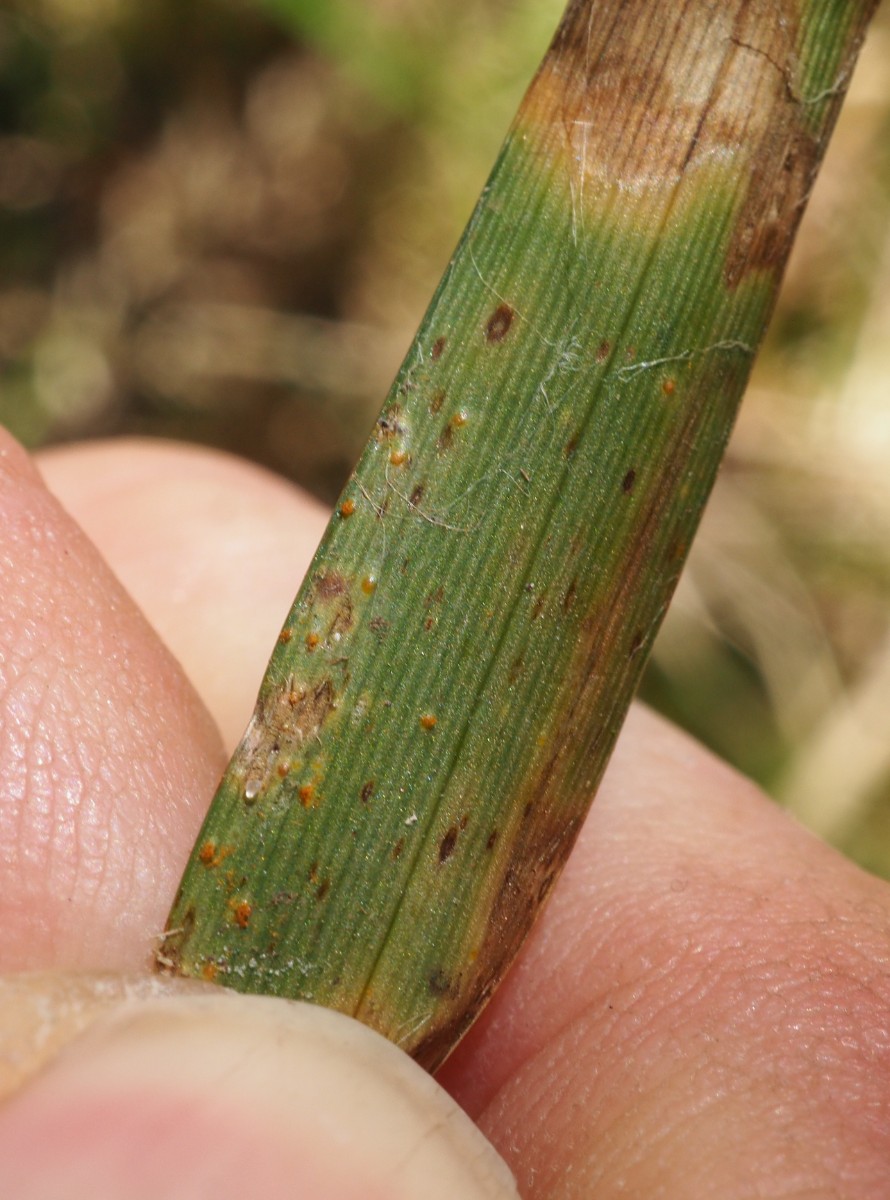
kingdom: Fungi
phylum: Basidiomycota
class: Pucciniomycetes
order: Pucciniales
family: Pucciniaceae
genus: Puccinia
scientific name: Puccinia obscura
